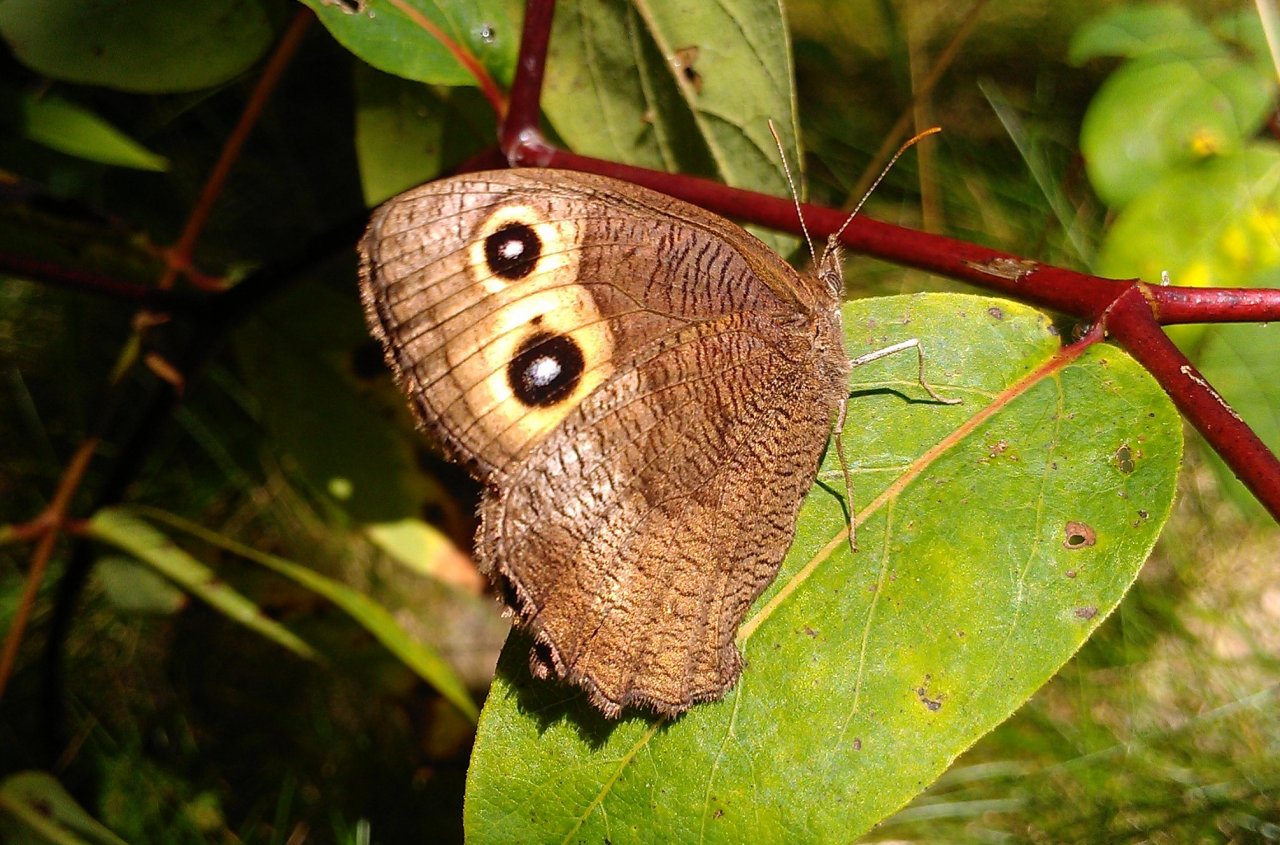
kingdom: Animalia
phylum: Arthropoda
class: Insecta
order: Lepidoptera
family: Nymphalidae
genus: Cercyonis
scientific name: Cercyonis pegala
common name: Common Wood-Nymph
